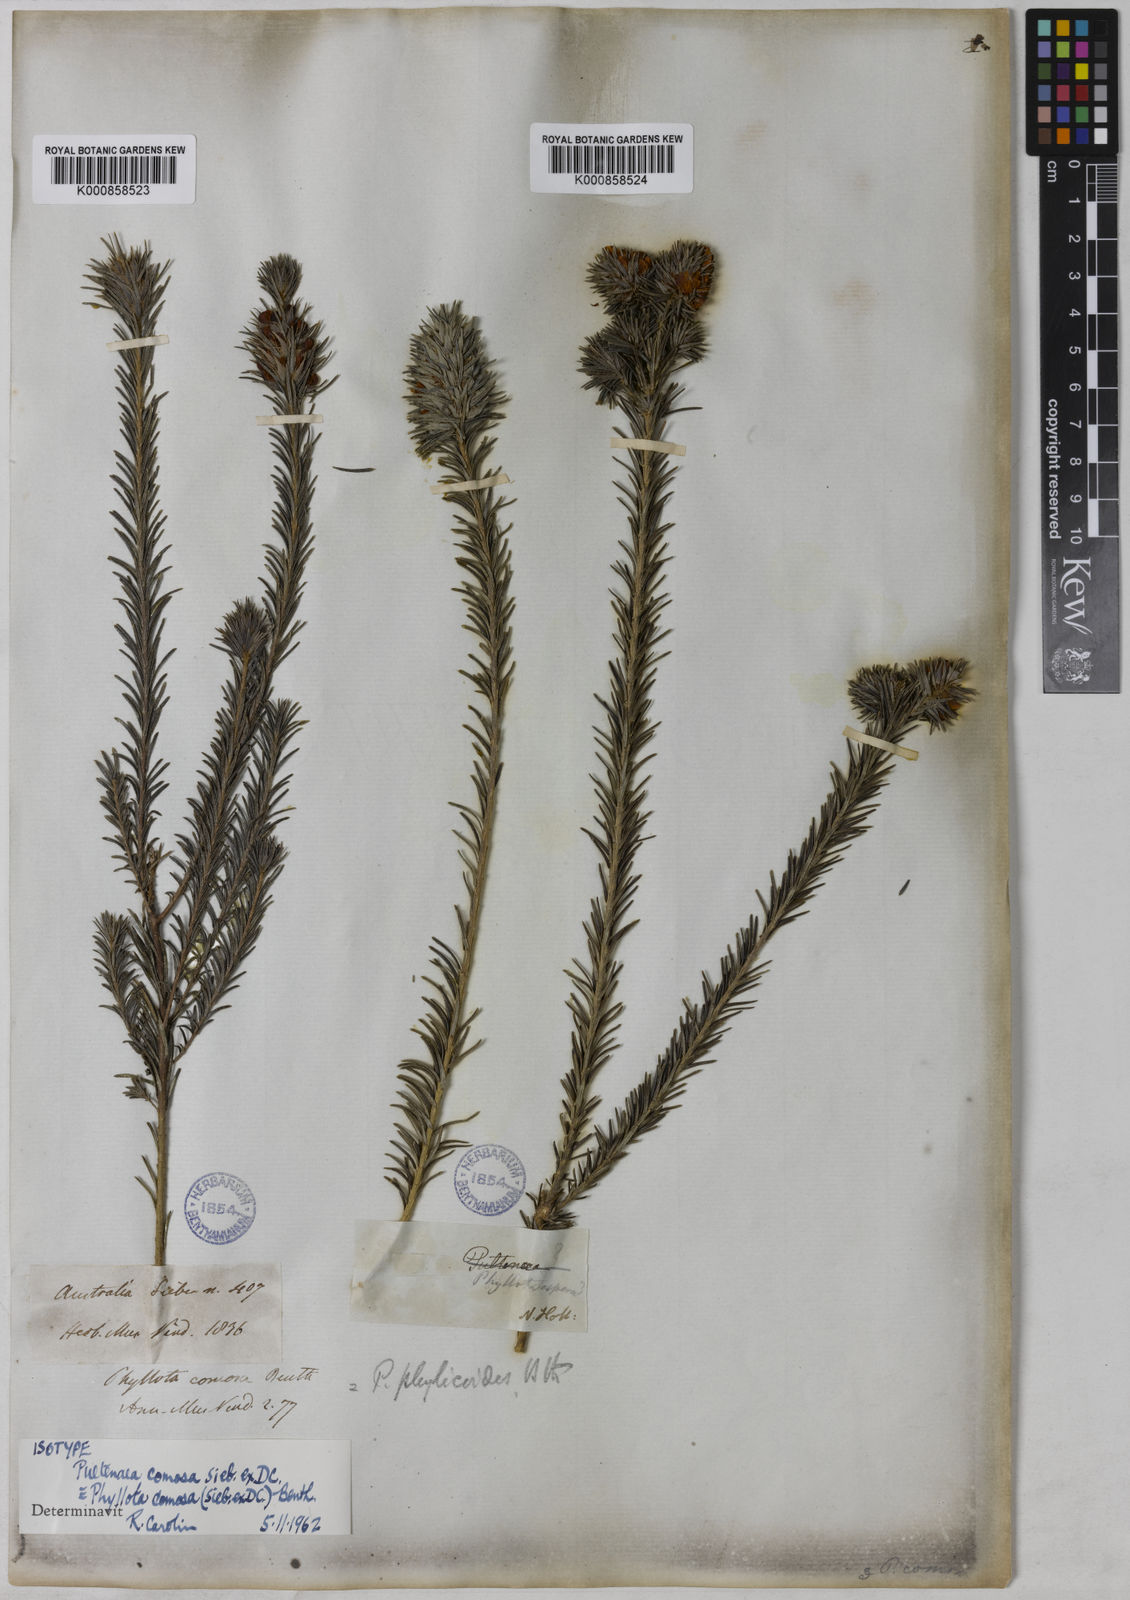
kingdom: Plantae
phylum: Tracheophyta
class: Magnoliopsida
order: Fabales
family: Fabaceae
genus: Phyllota
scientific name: Phyllota phylicoides
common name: Heath phyllota
